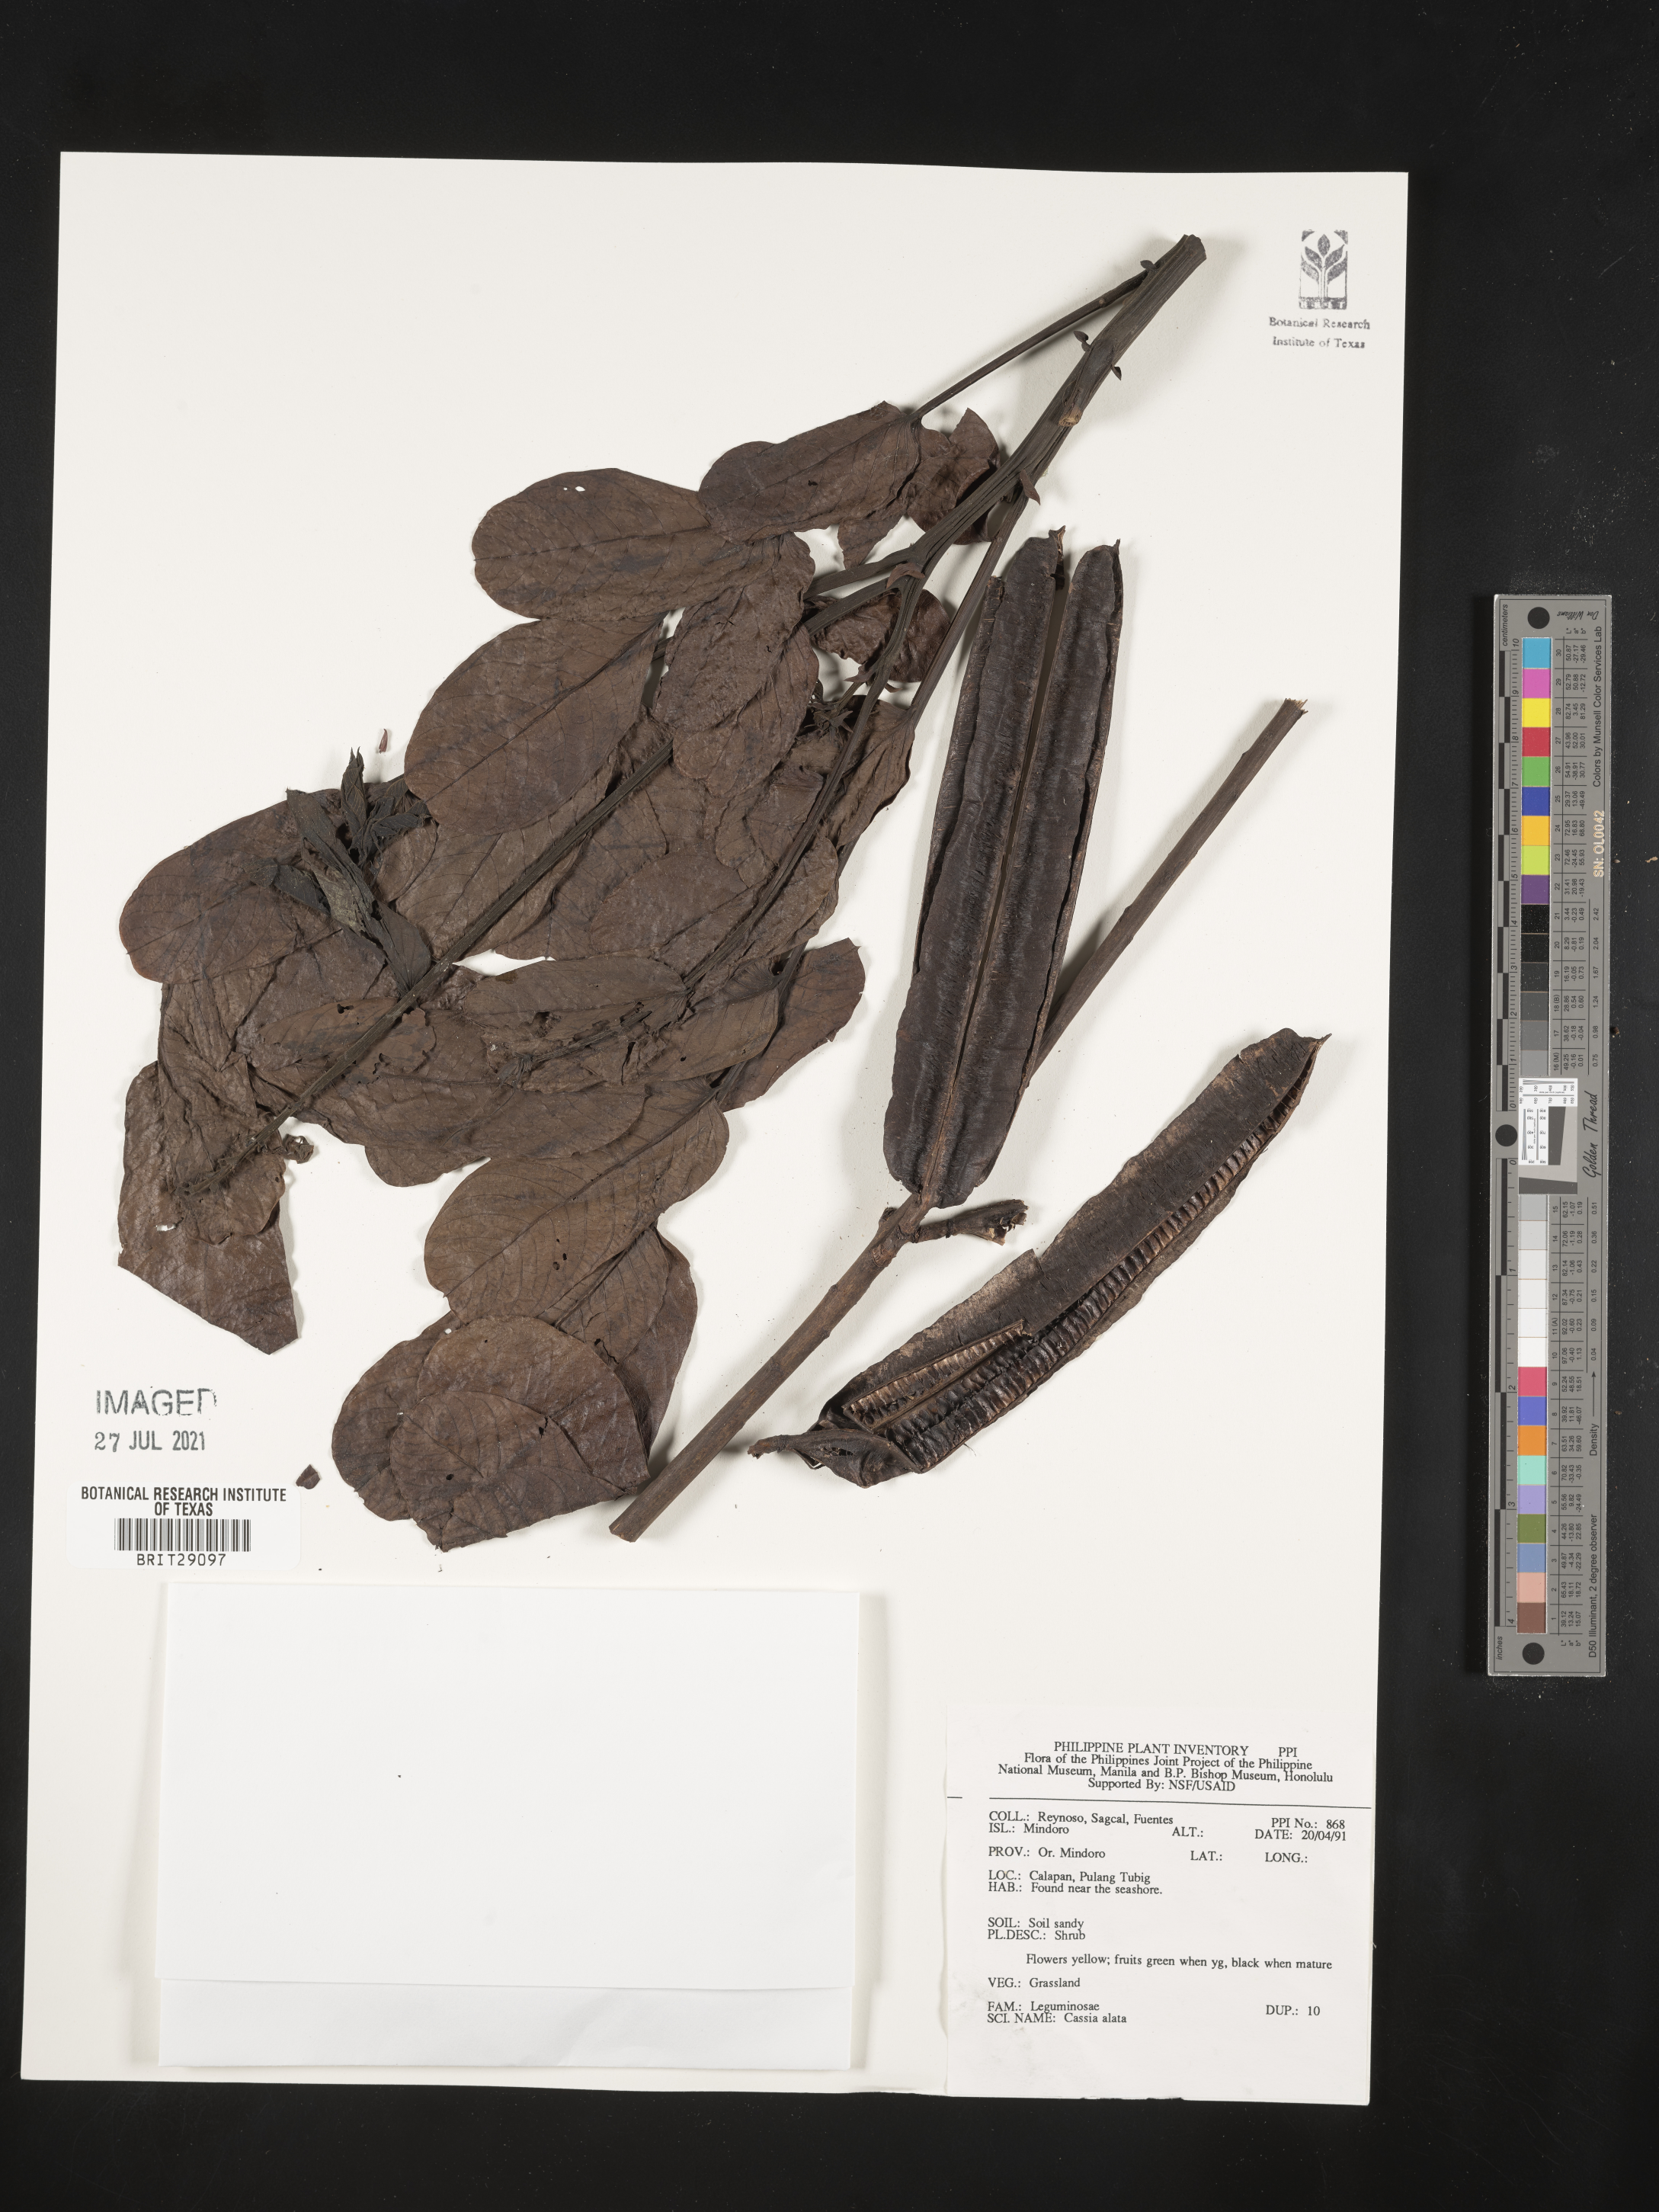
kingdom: Plantae
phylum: Tracheophyta
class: Magnoliopsida
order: Fabales
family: Fabaceae
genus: Senna
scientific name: Senna alata
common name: Emperor's candlesticks
